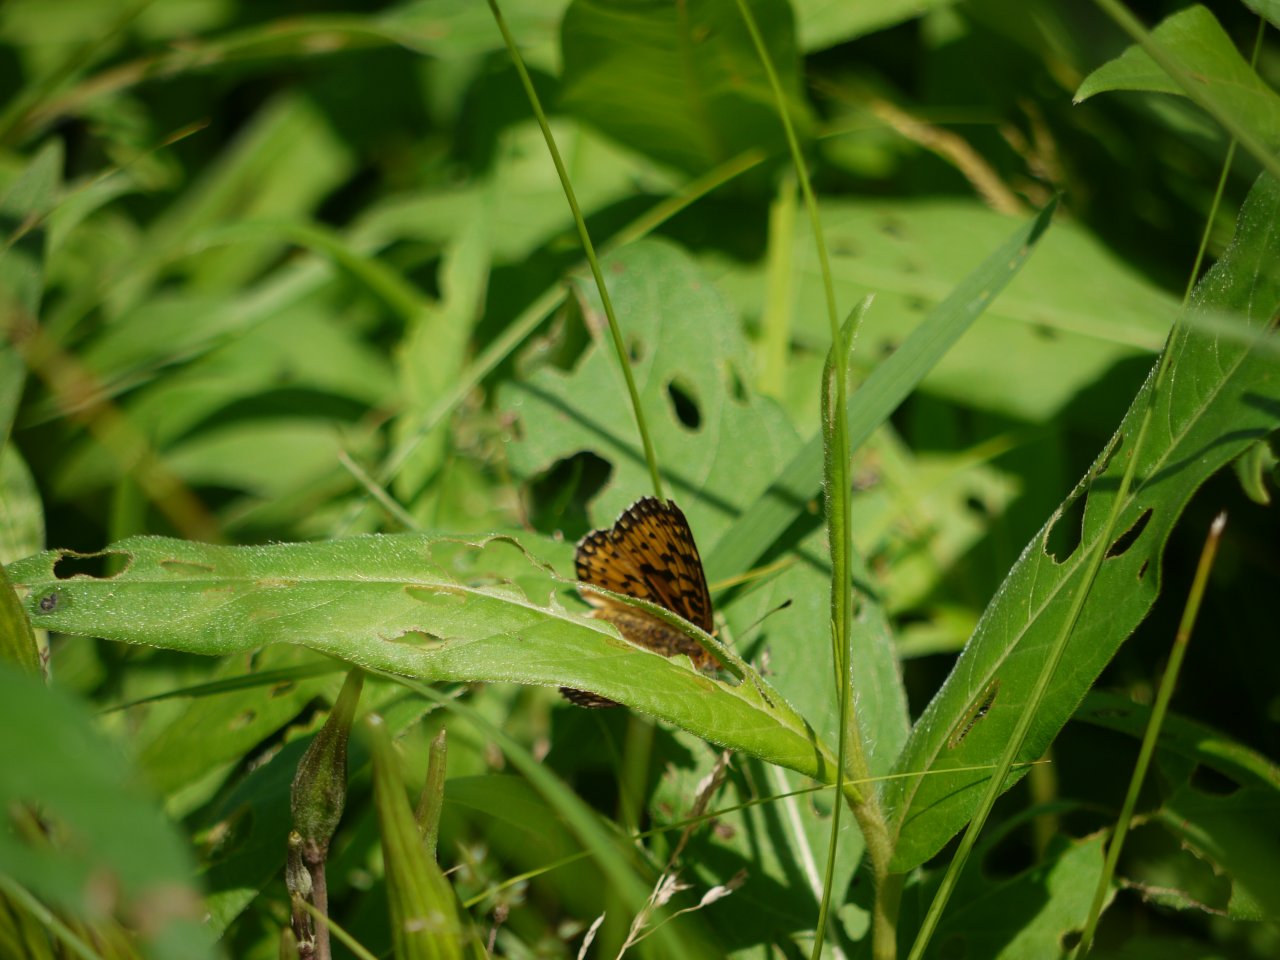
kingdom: Animalia
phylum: Arthropoda
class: Insecta
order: Lepidoptera
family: Nymphalidae
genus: Boloria
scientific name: Boloria selene
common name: Silver-bordered Fritillary
